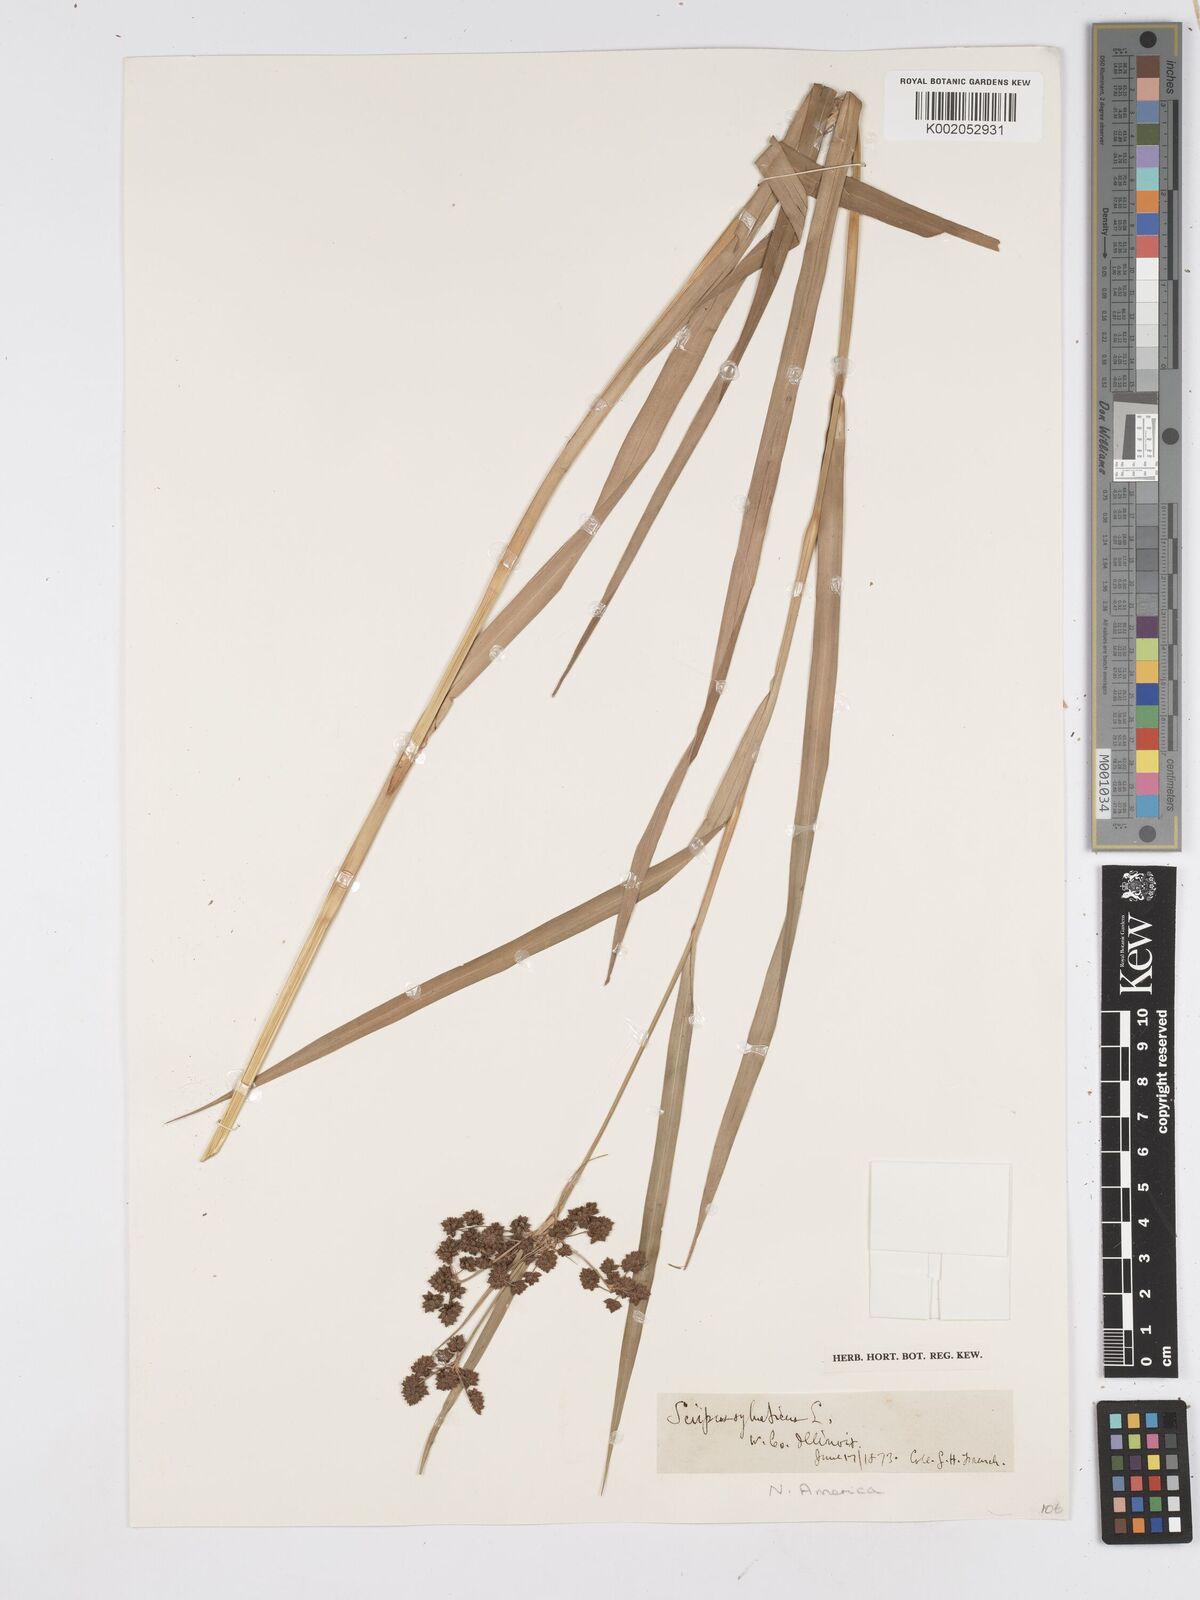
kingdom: Plantae
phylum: Tracheophyta
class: Liliopsida
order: Poales
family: Cyperaceae
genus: Scirpus
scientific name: Scirpus sylvaticus
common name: Wood club-rush
